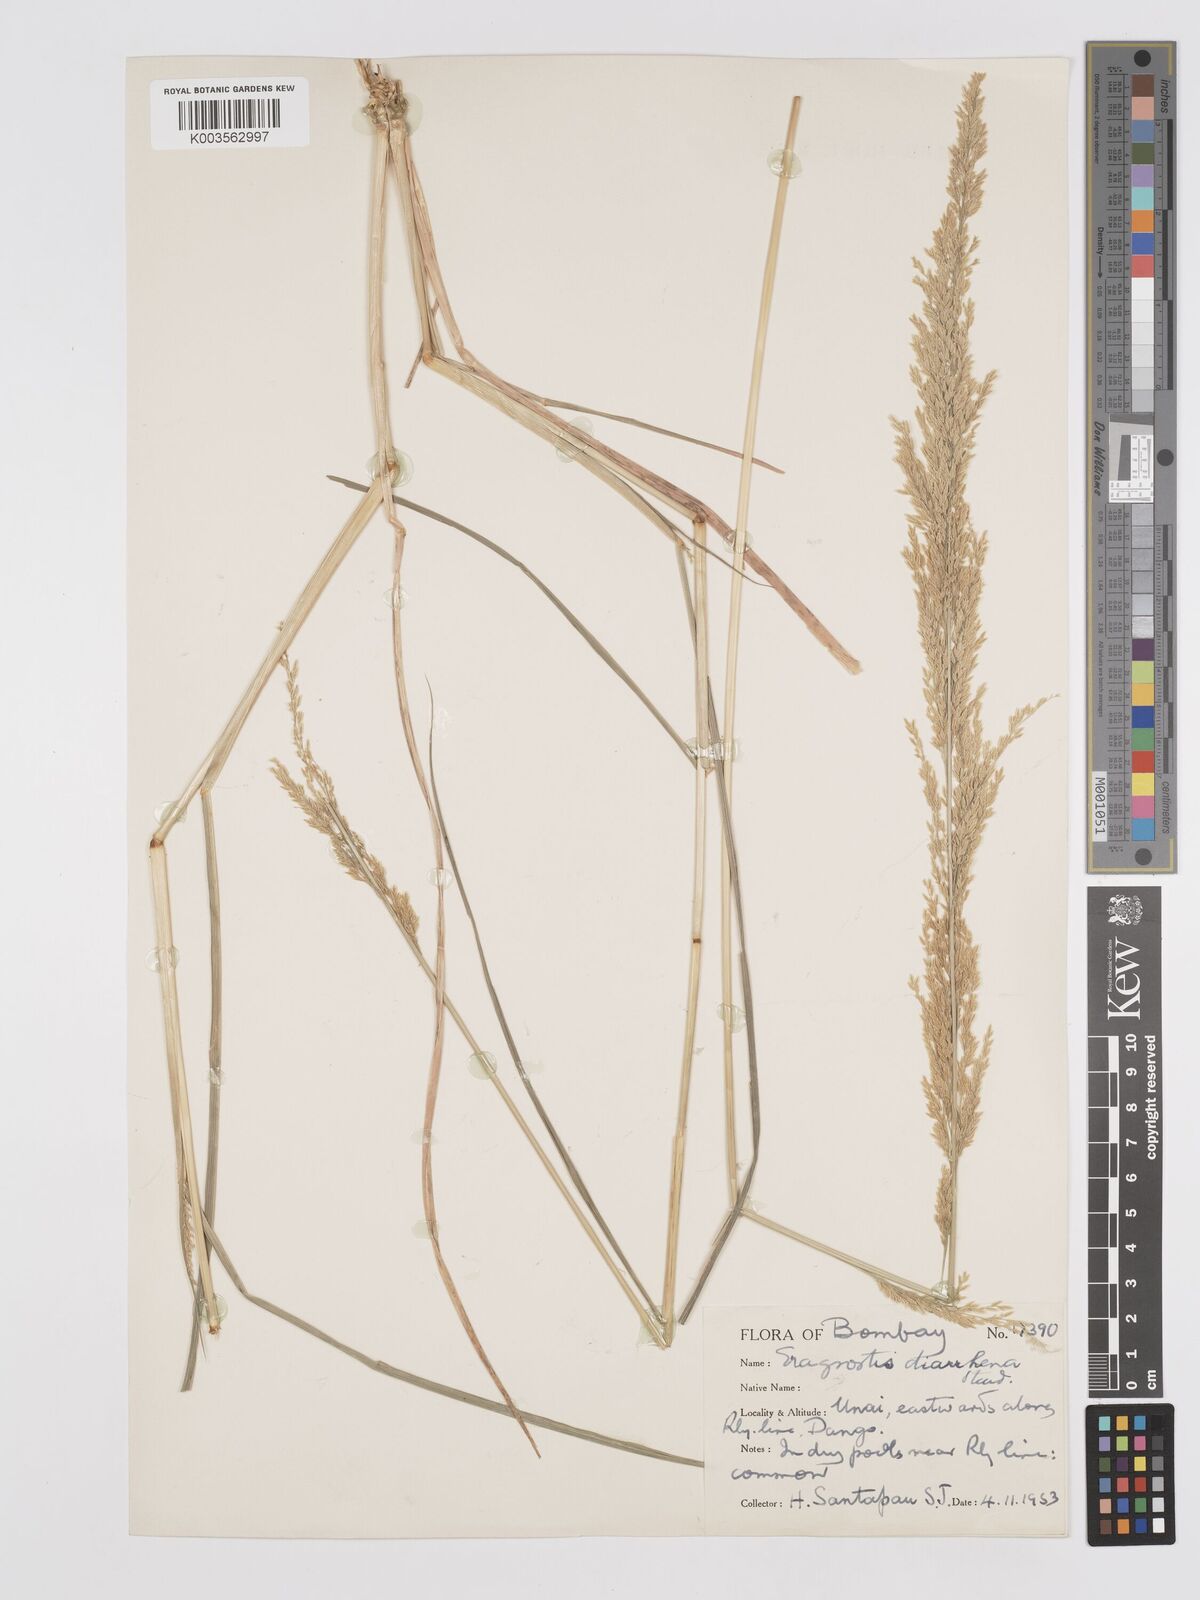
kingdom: Plantae
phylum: Tracheophyta
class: Liliopsida
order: Poales
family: Poaceae
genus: Eragrostis
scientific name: Eragrostis japonica
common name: Pond lovegrass
